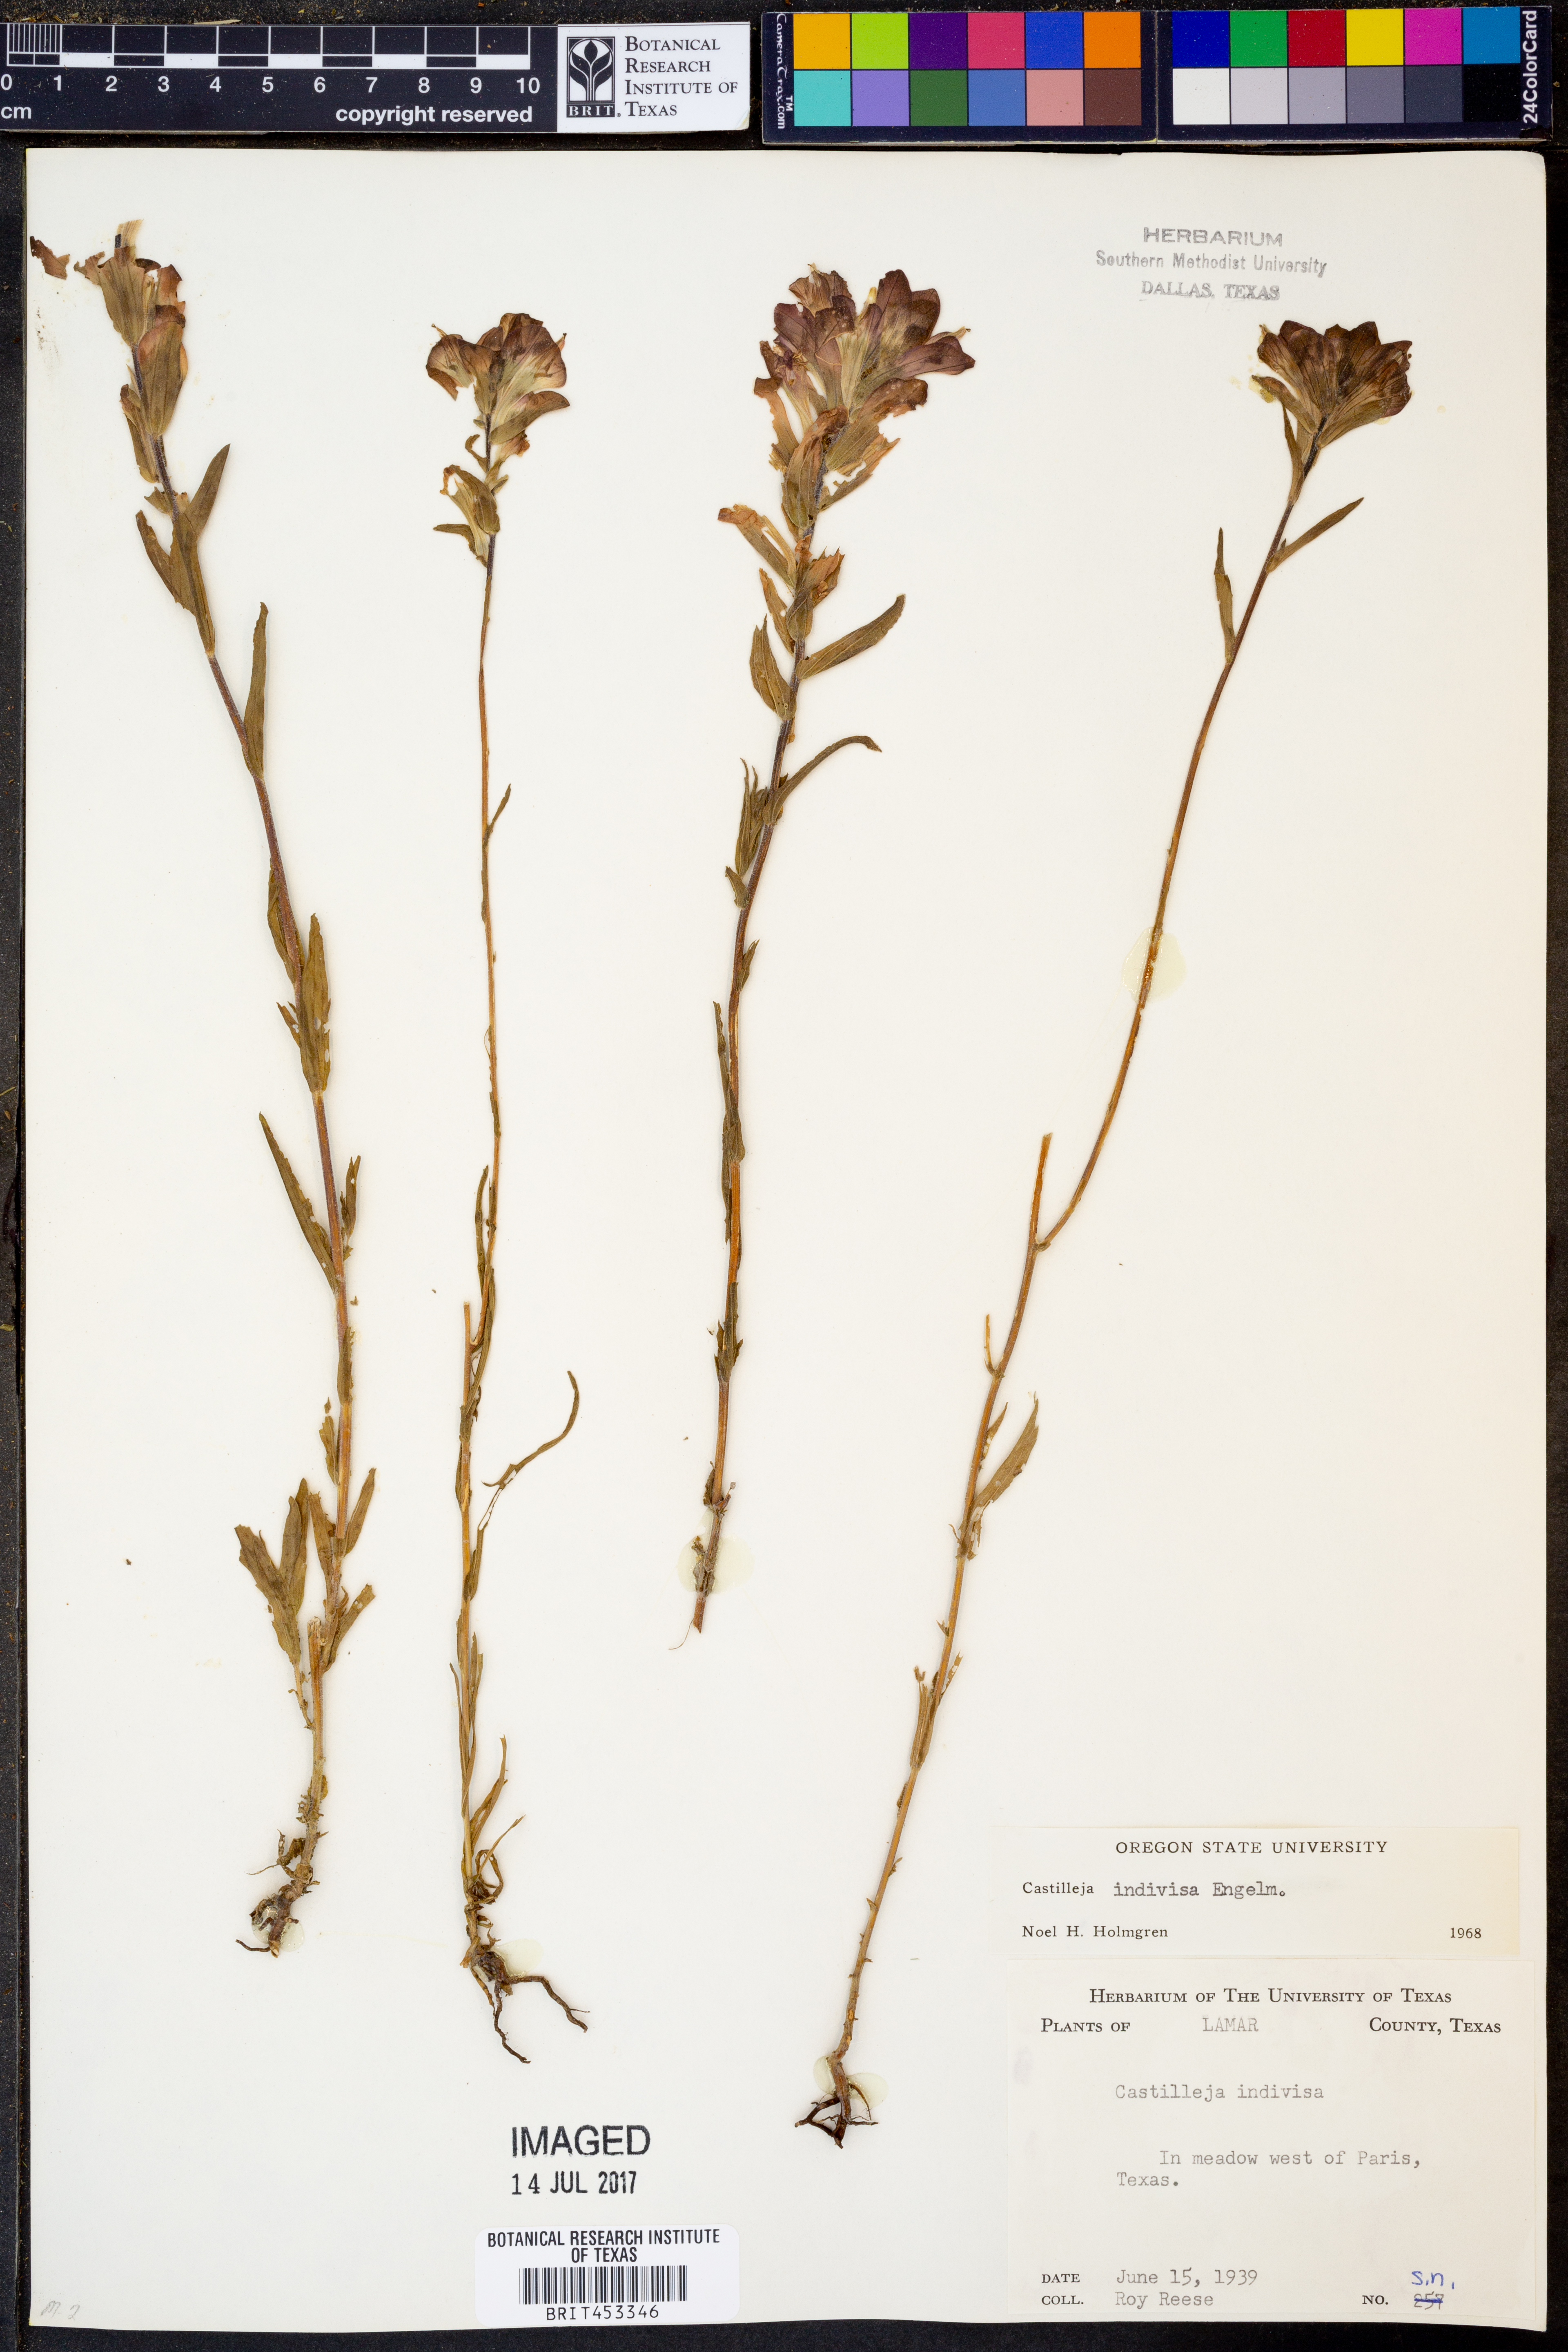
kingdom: Plantae
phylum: Tracheophyta
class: Magnoliopsida
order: Lamiales
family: Orobanchaceae
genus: Castilleja
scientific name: Castilleja indivisa
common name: Texas paintbrush
